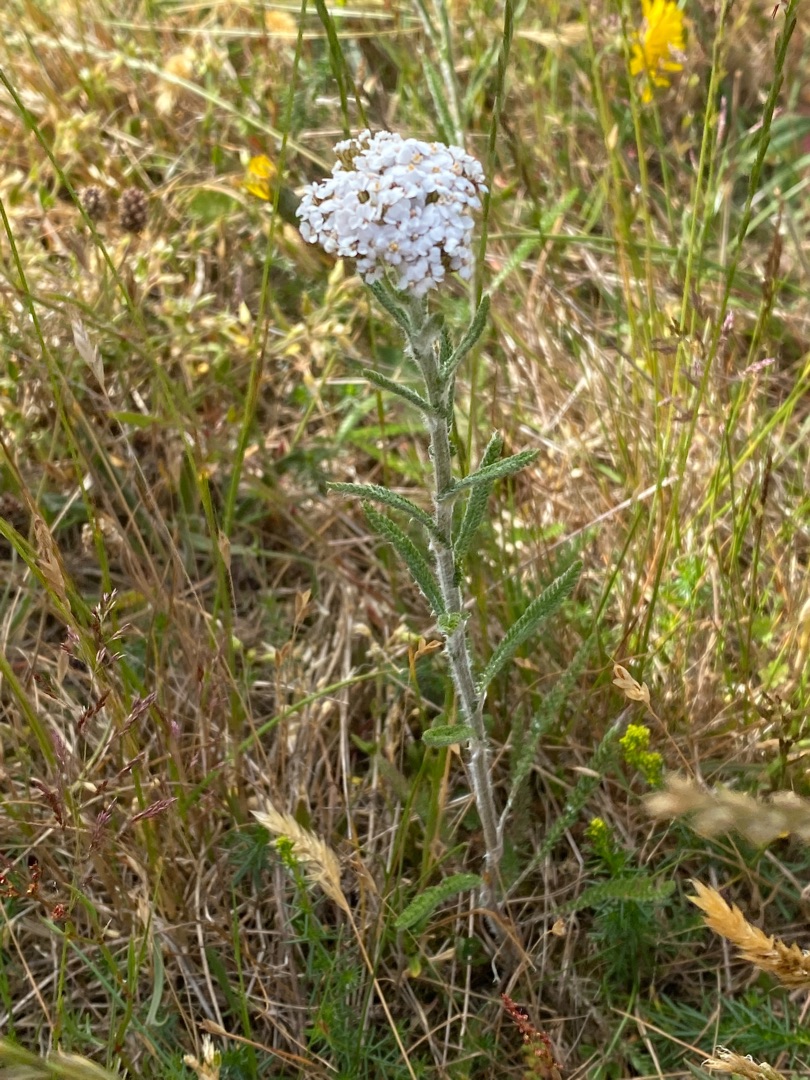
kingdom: Plantae
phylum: Tracheophyta
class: Magnoliopsida
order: Asterales
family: Asteraceae
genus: Achillea
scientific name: Achillea millefolium
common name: Almindelig røllike
